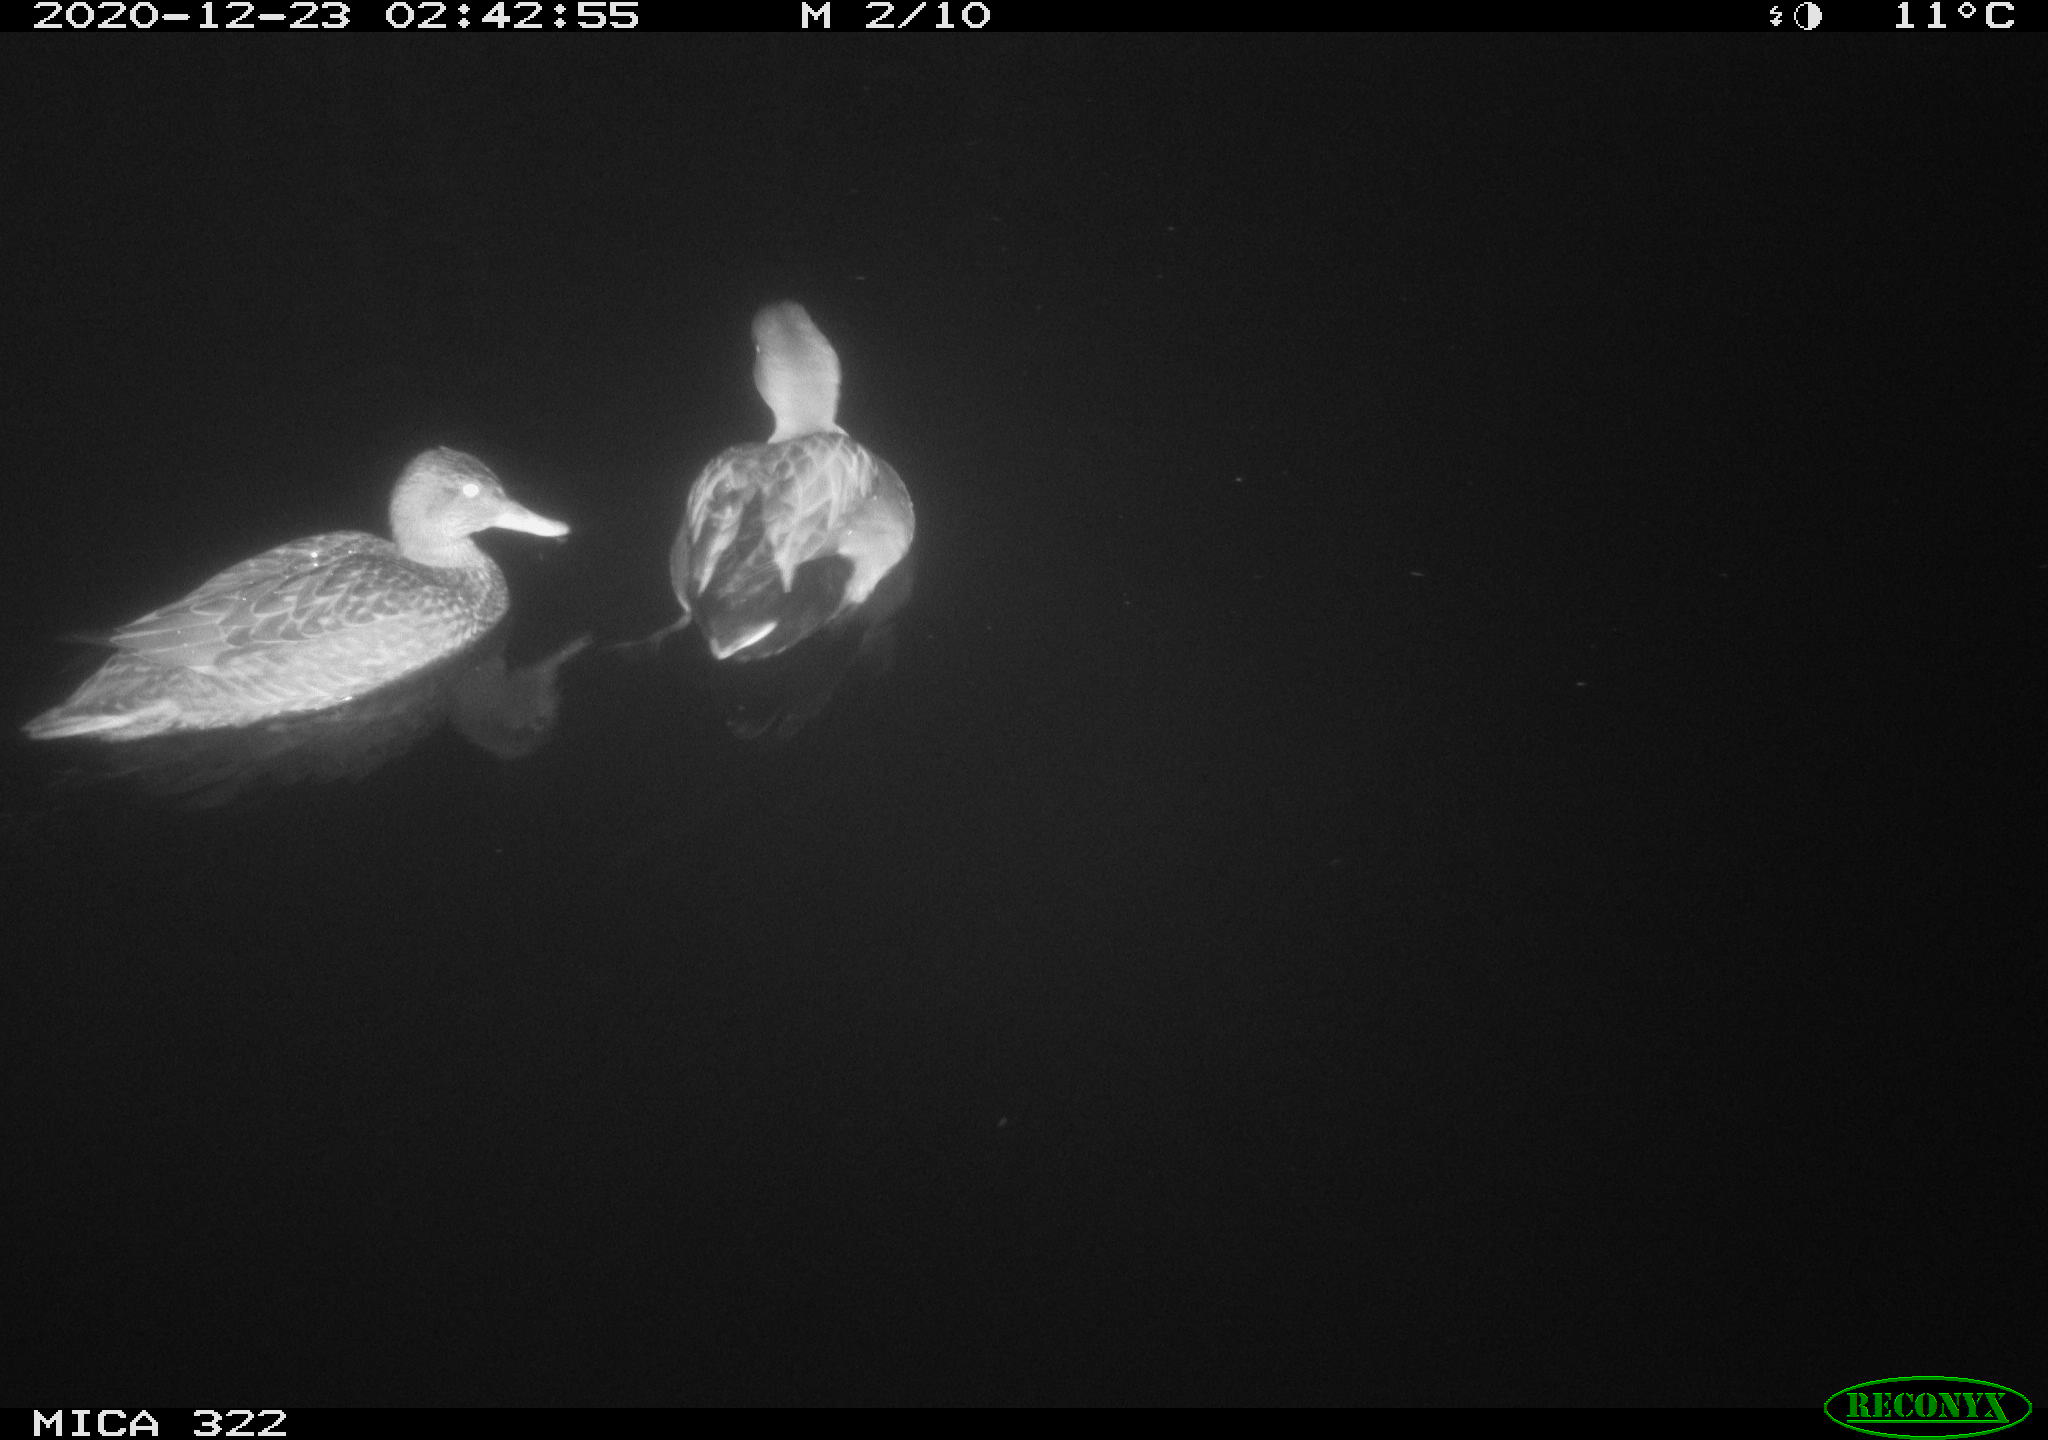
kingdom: Animalia
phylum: Chordata
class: Aves
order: Anseriformes
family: Anatidae
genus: Mareca
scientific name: Mareca strepera
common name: Gadwall
